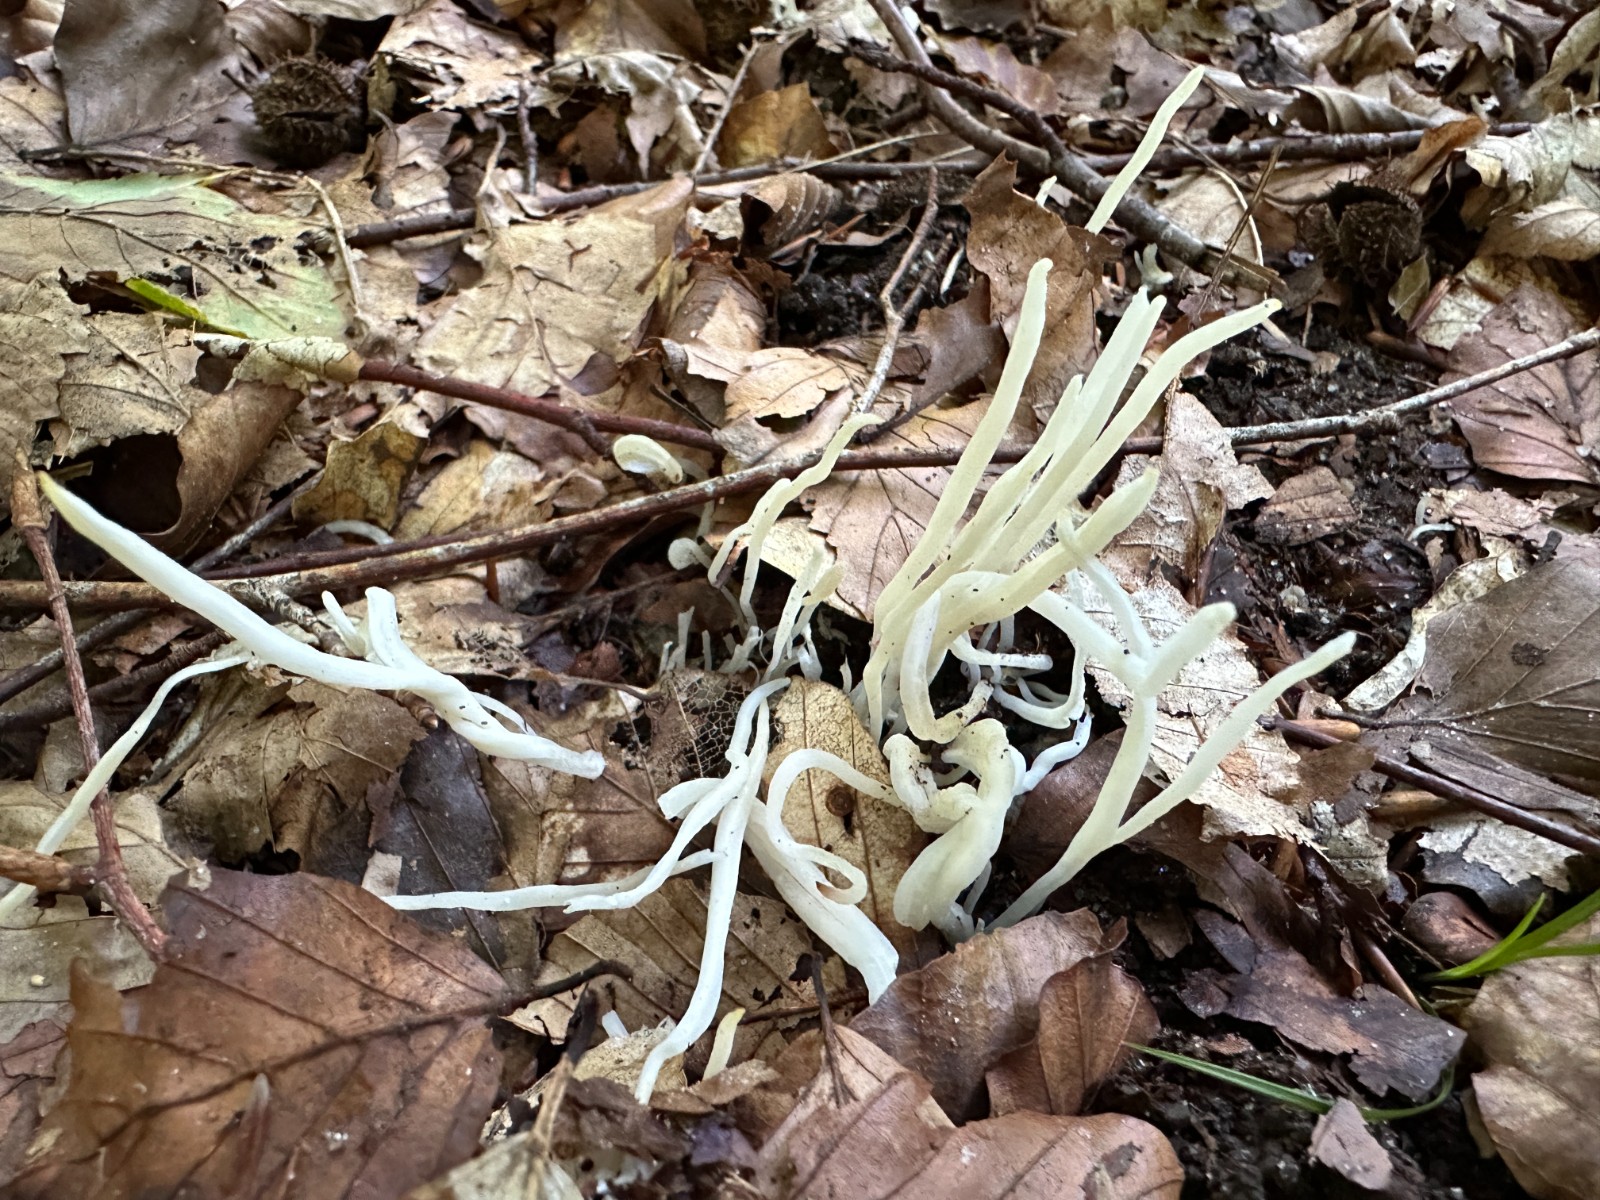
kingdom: Fungi
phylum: Basidiomycota
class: Agaricomycetes
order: Agaricales
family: Clavariaceae
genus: Clavaria
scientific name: Clavaria
